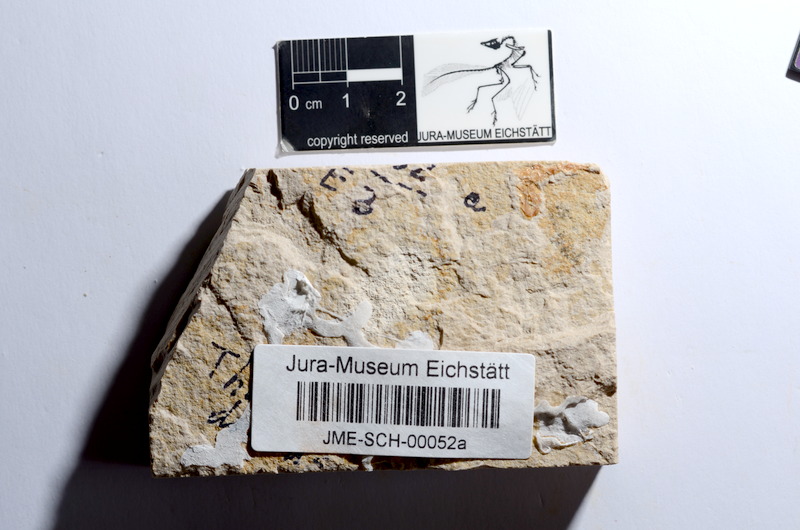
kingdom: Animalia
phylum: Chordata
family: Ascalaboidae
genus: Tharsis
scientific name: Tharsis dubius
